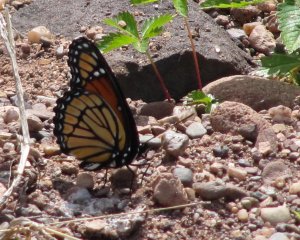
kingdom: Animalia
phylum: Arthropoda
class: Insecta
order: Lepidoptera
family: Nymphalidae
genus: Limenitis
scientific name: Limenitis archippus
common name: Viceroy
